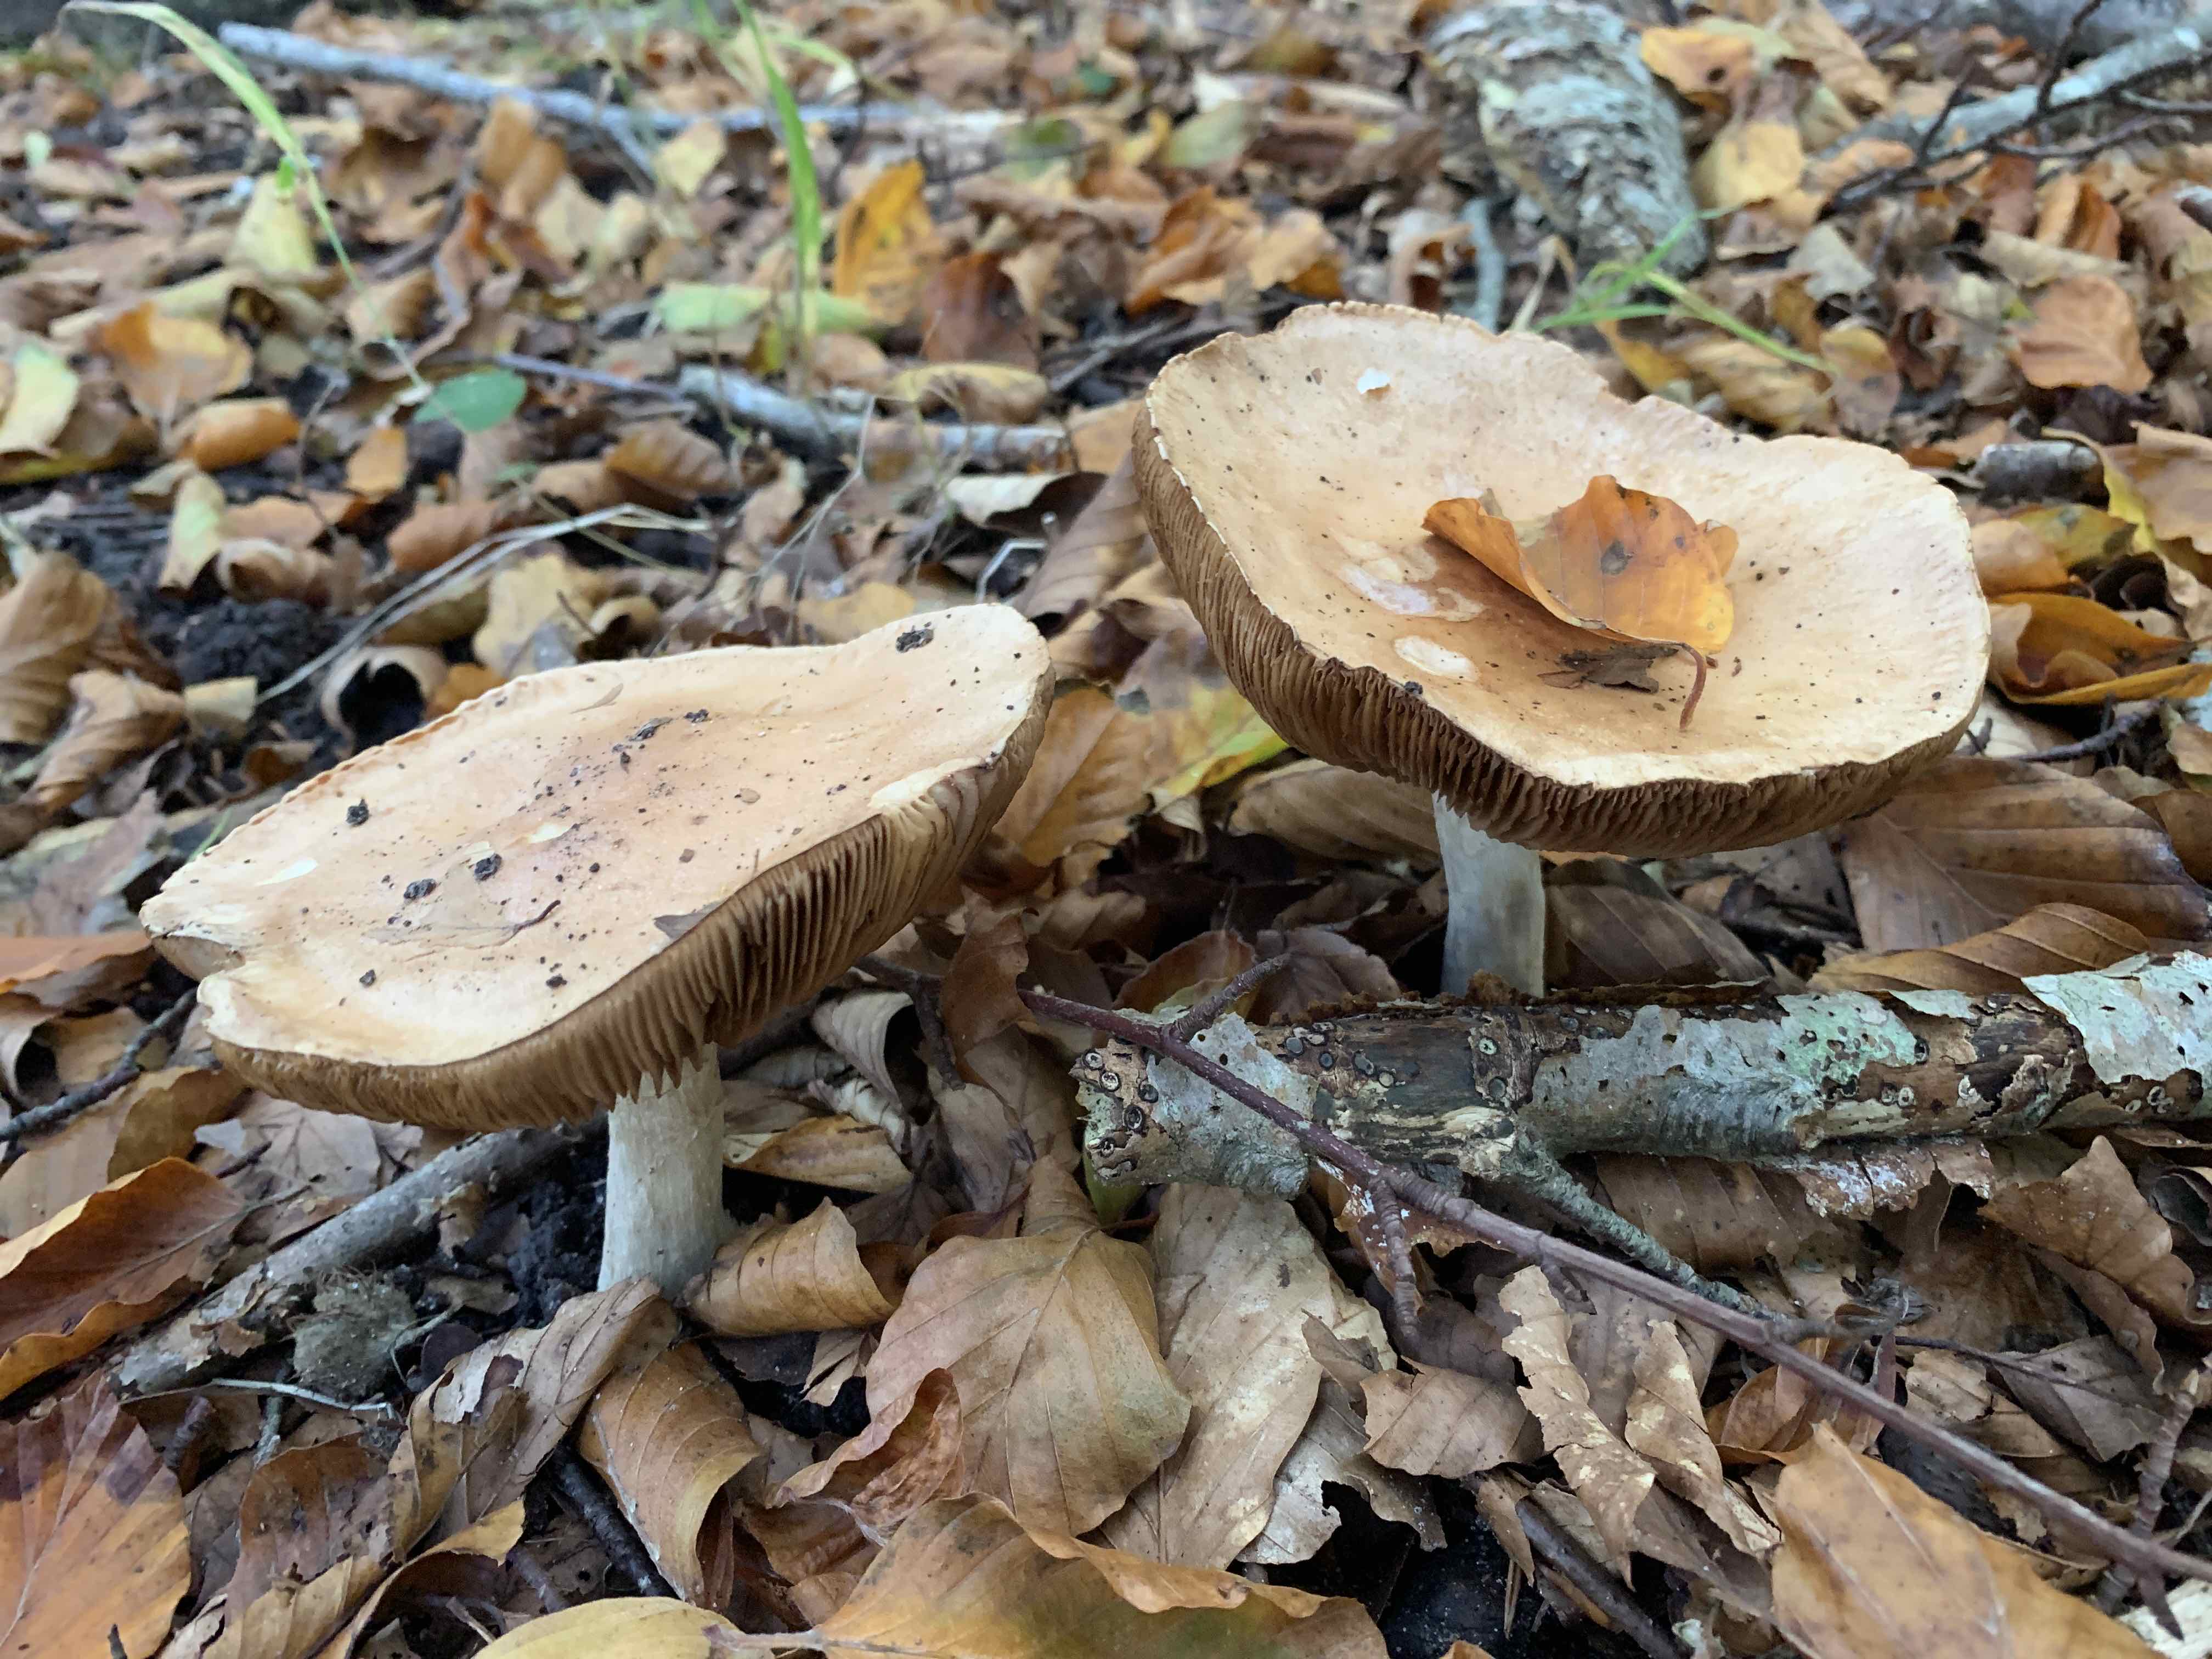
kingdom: Fungi
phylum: Basidiomycota
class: Agaricomycetes
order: Agaricales
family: Hymenogastraceae
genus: Hebeloma
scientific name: Hebeloma sinapizans
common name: ræddike-tåreblad
